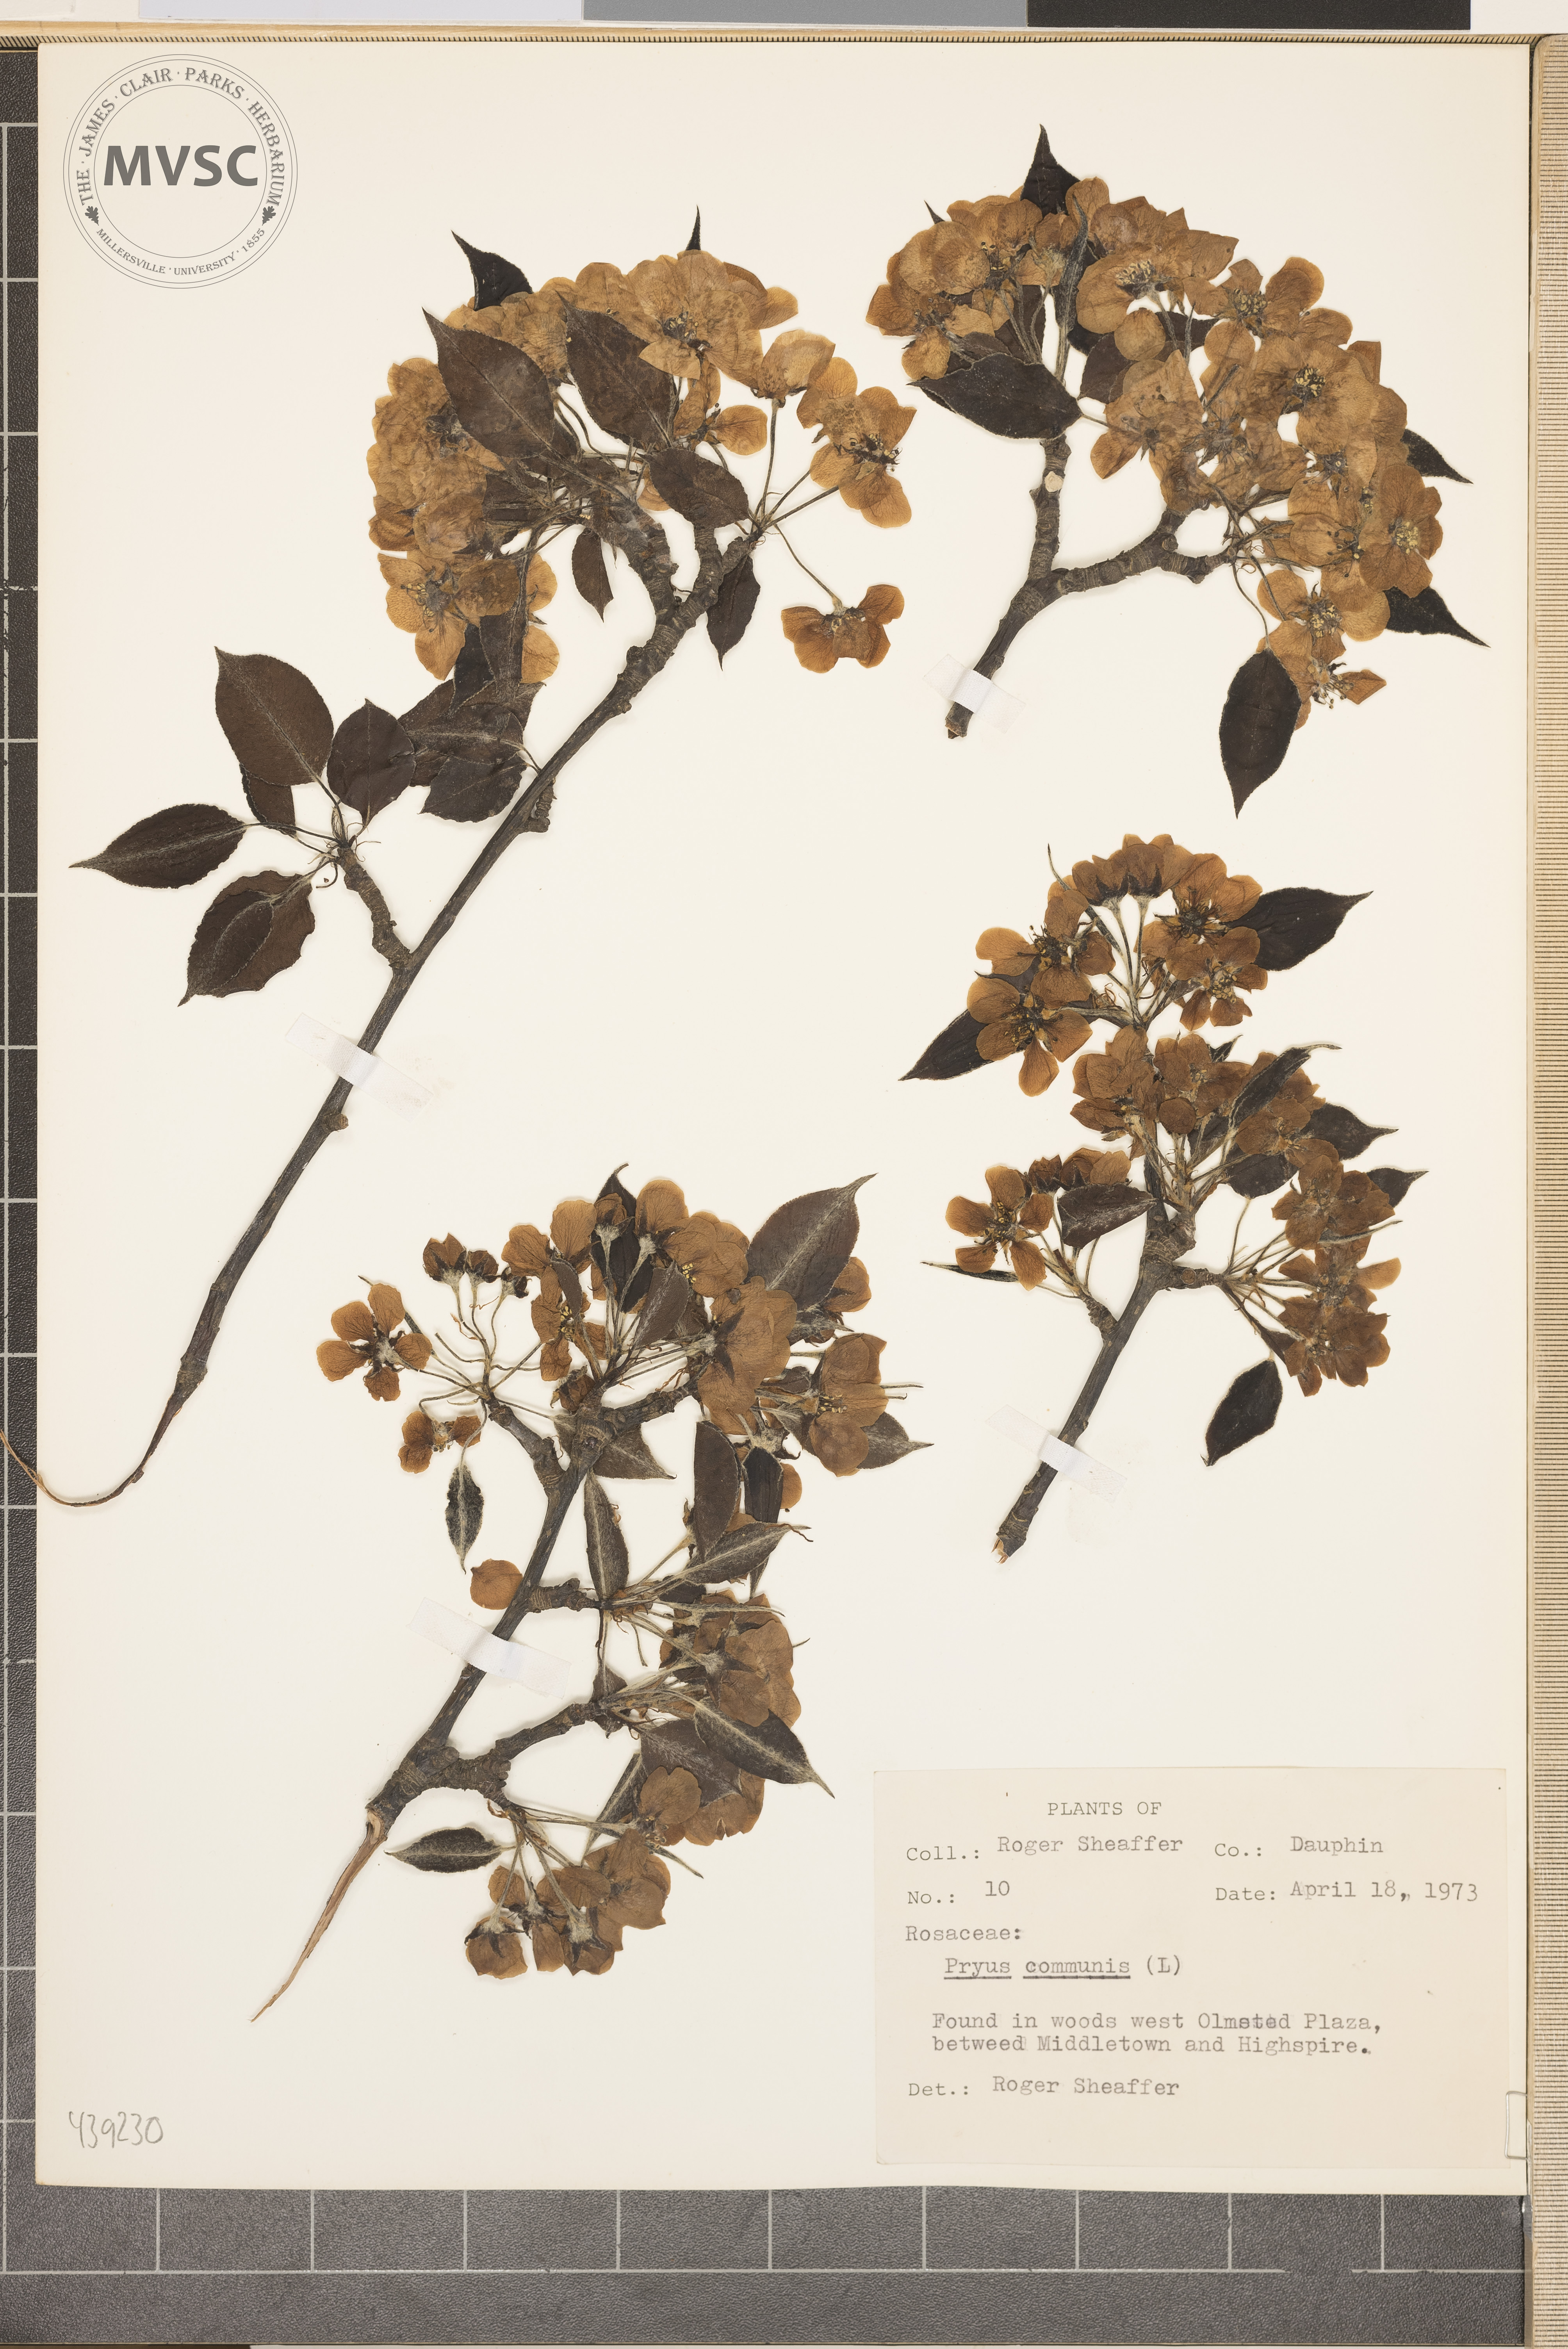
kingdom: Plantae
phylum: Tracheophyta
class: Magnoliopsida
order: Rosales
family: Rosaceae
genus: Pyrus
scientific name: Pyrus communis
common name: Pear
